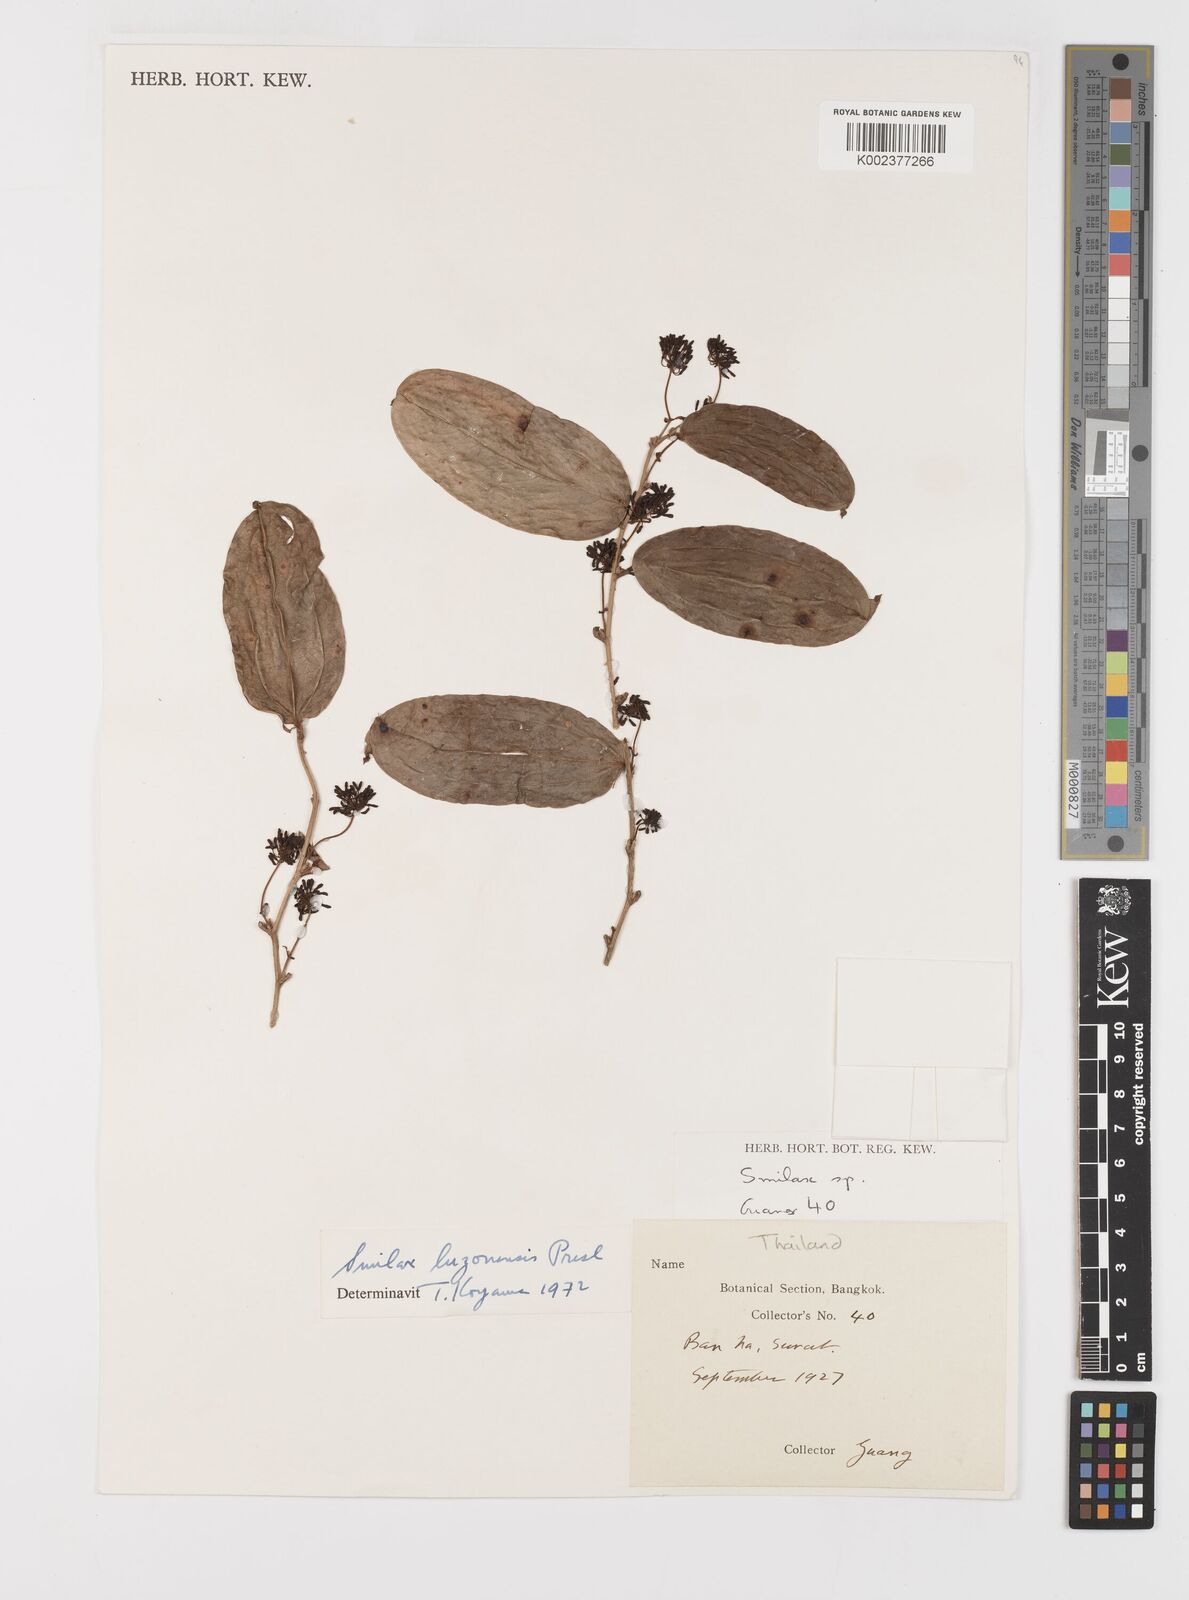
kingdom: Plantae
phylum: Tracheophyta
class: Liliopsida
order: Liliales
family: Smilacaceae
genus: Smilax
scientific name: Smilax luzonensis
